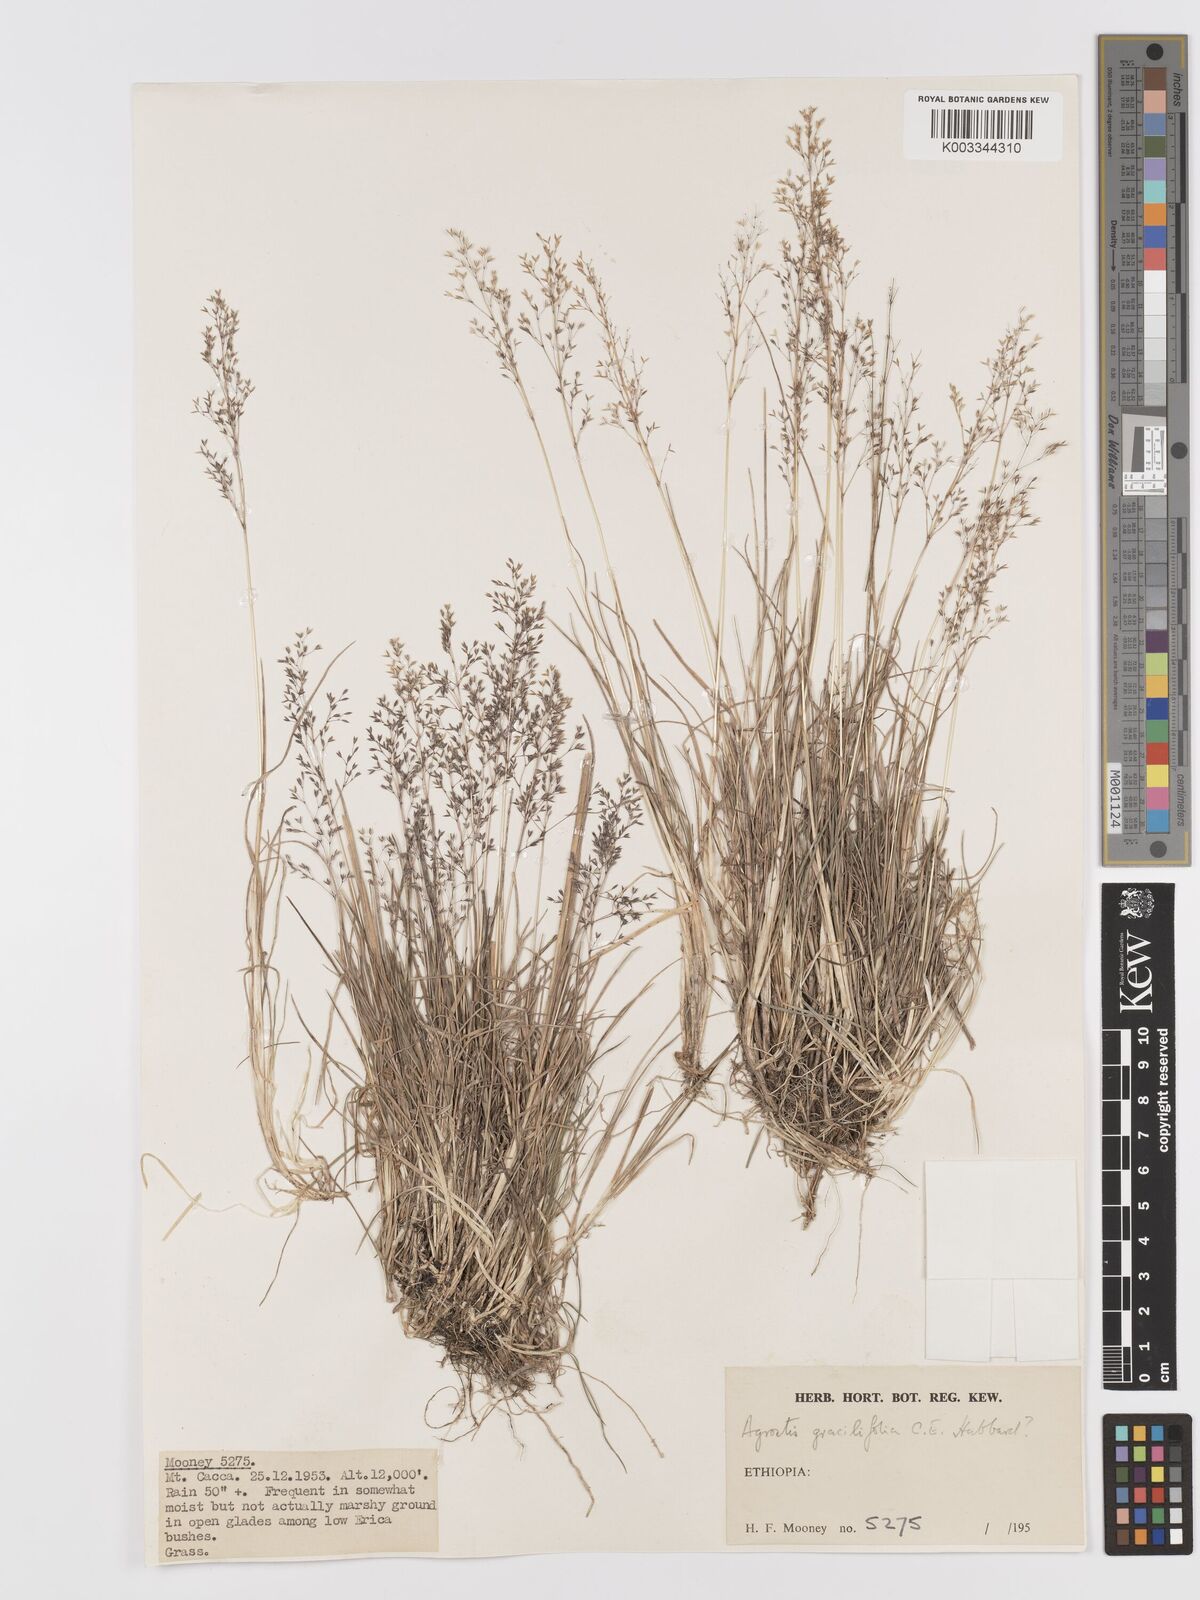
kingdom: Plantae
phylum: Tracheophyta
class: Liliopsida
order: Poales
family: Poaceae
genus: Agrostis
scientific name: Agrostis gracilifolia
